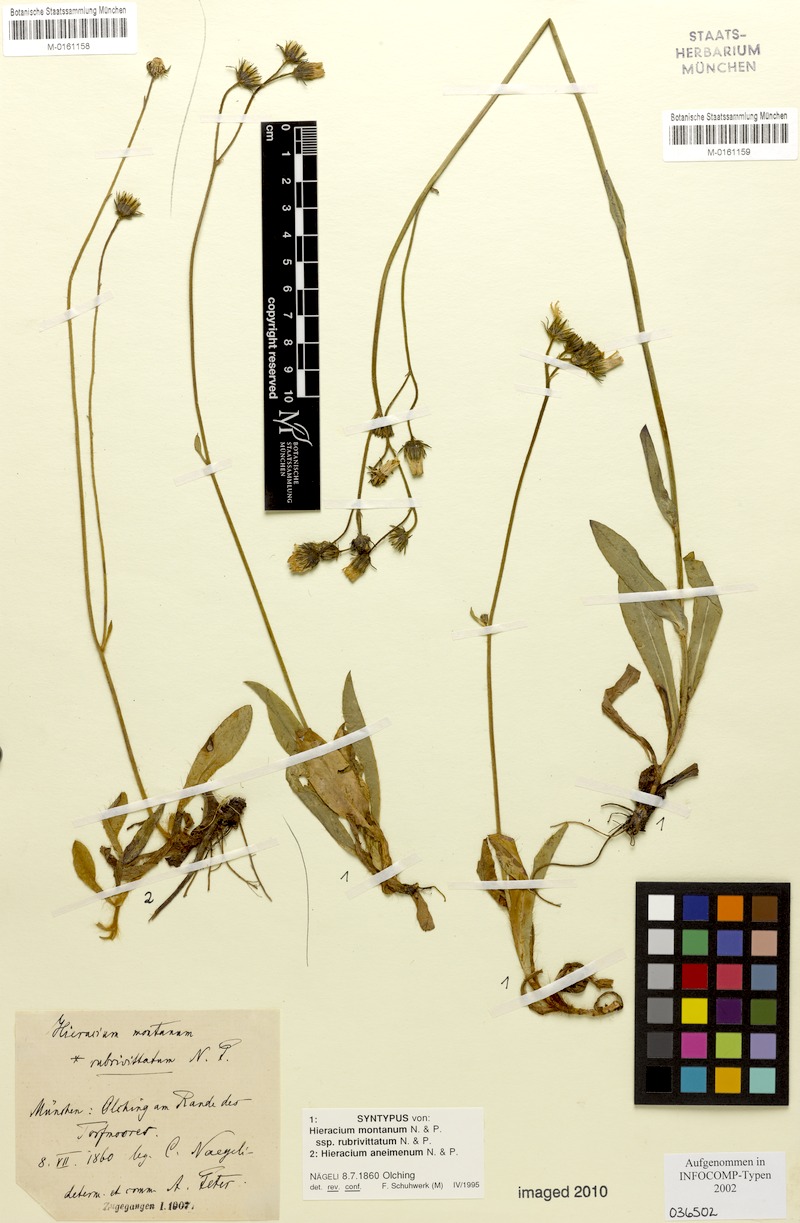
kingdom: Plantae
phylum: Tracheophyta
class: Magnoliopsida
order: Asterales
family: Asteraceae
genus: Pilosella
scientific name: Pilosella aneimena
